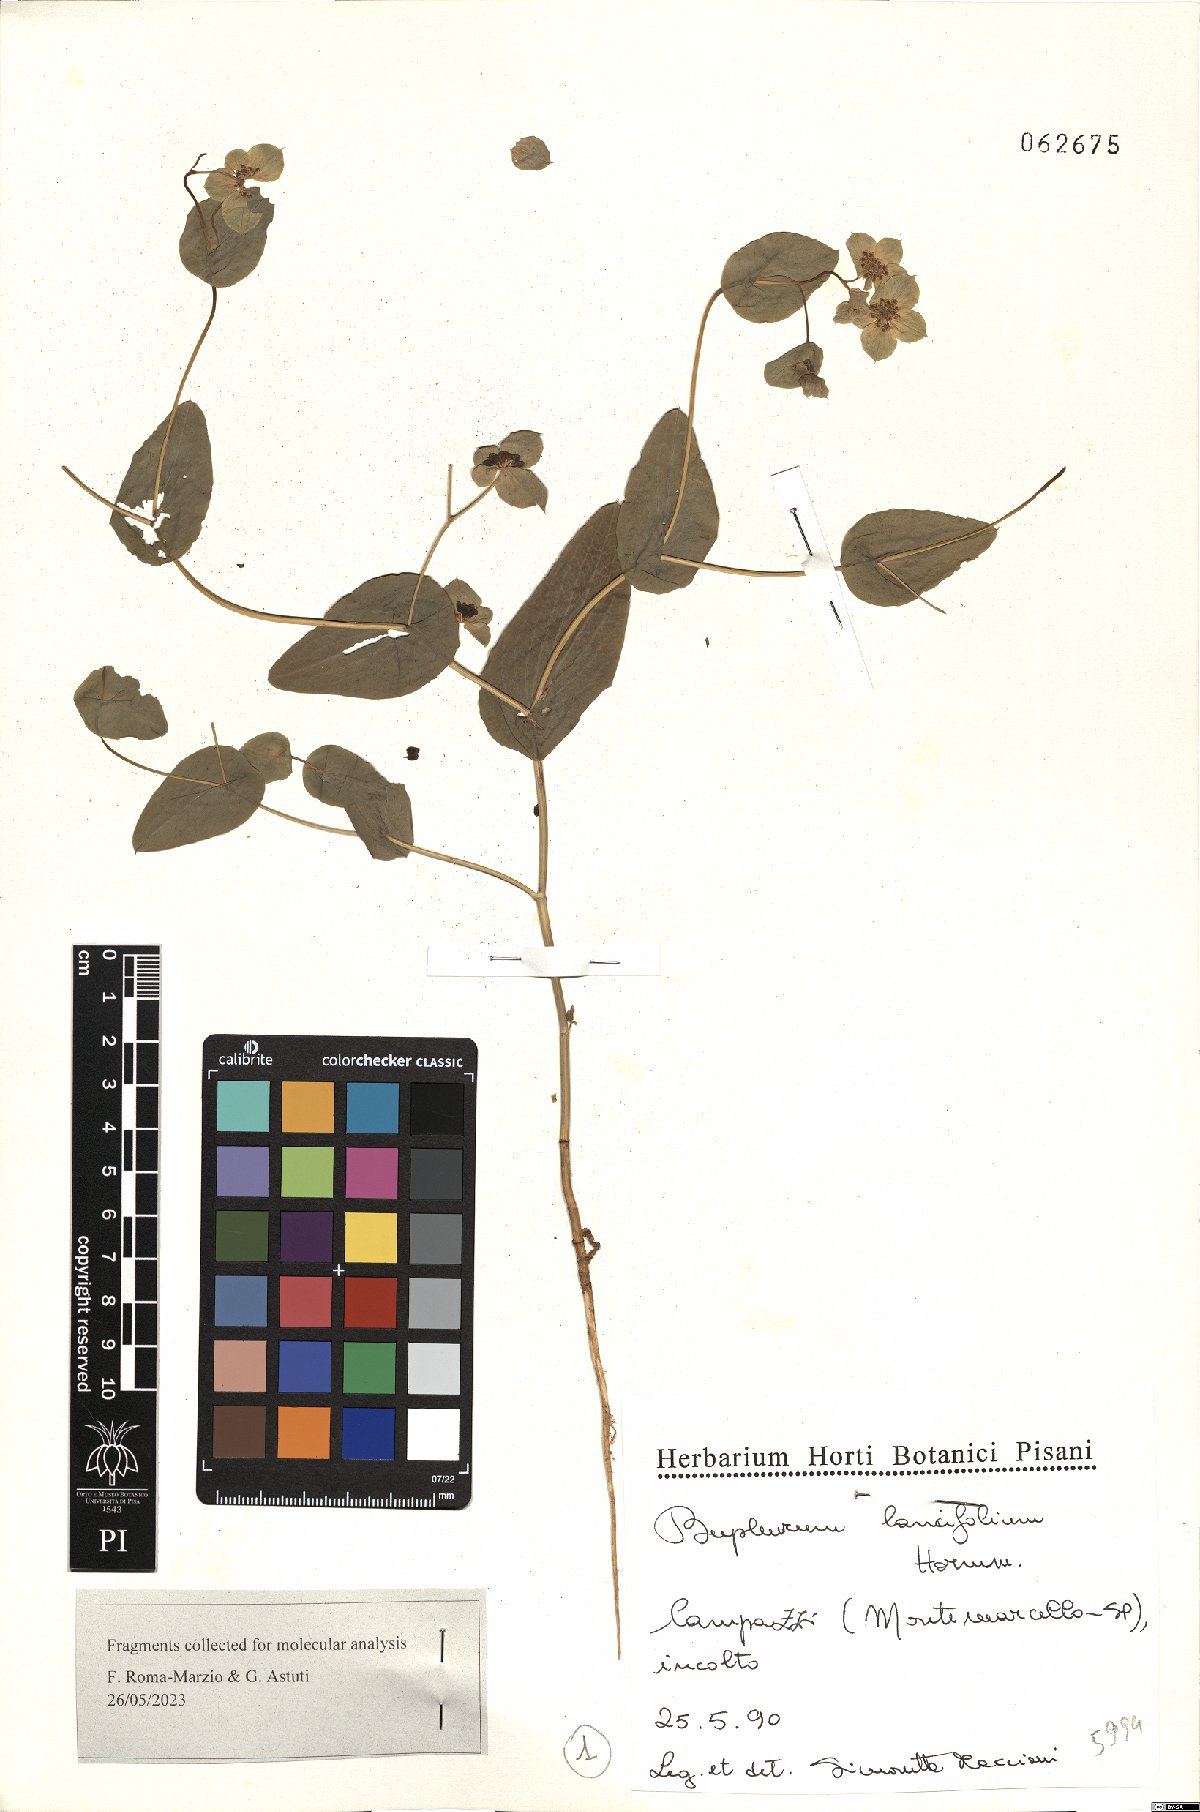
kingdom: Plantae
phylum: Tracheophyta
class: Magnoliopsida
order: Apiales
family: Apiaceae
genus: Bupleurum
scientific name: Bupleurum lancifolium
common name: False thorow-wax
